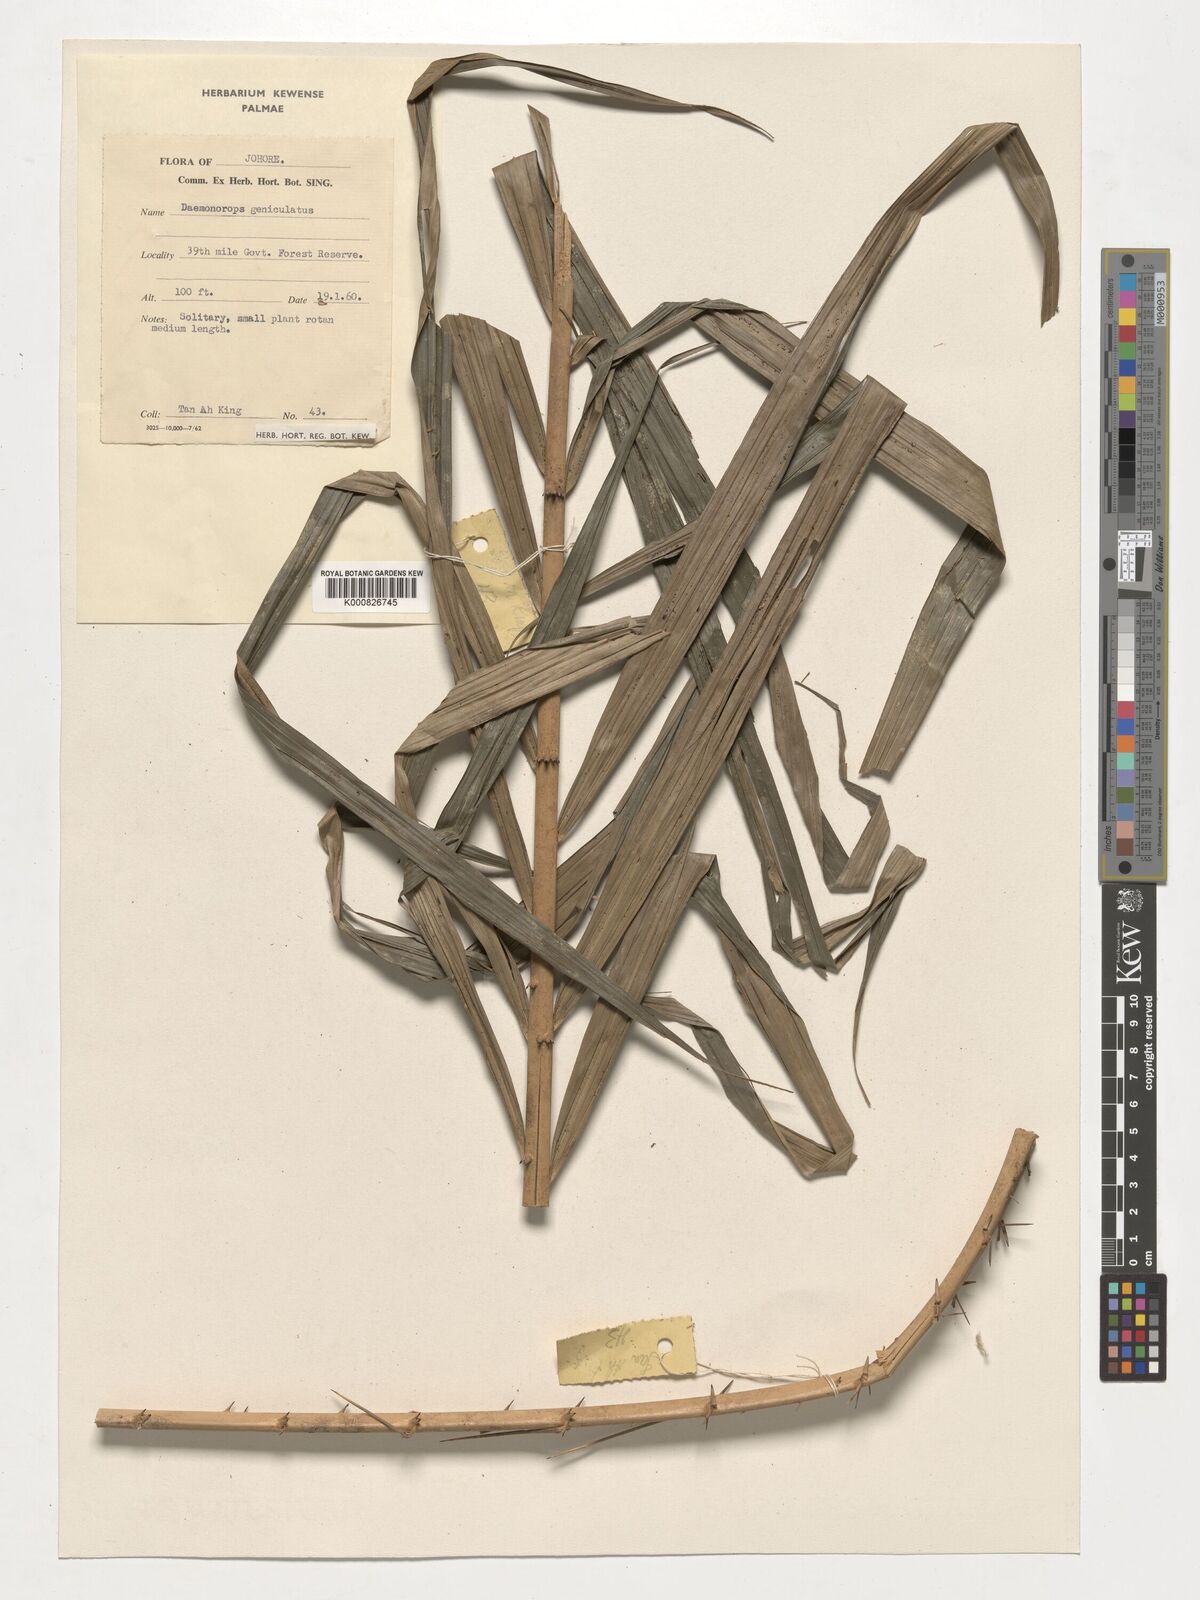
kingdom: Plantae
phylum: Tracheophyta
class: Liliopsida
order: Arecales
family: Arecaceae
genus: Calamus
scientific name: Calamus geniculatus
